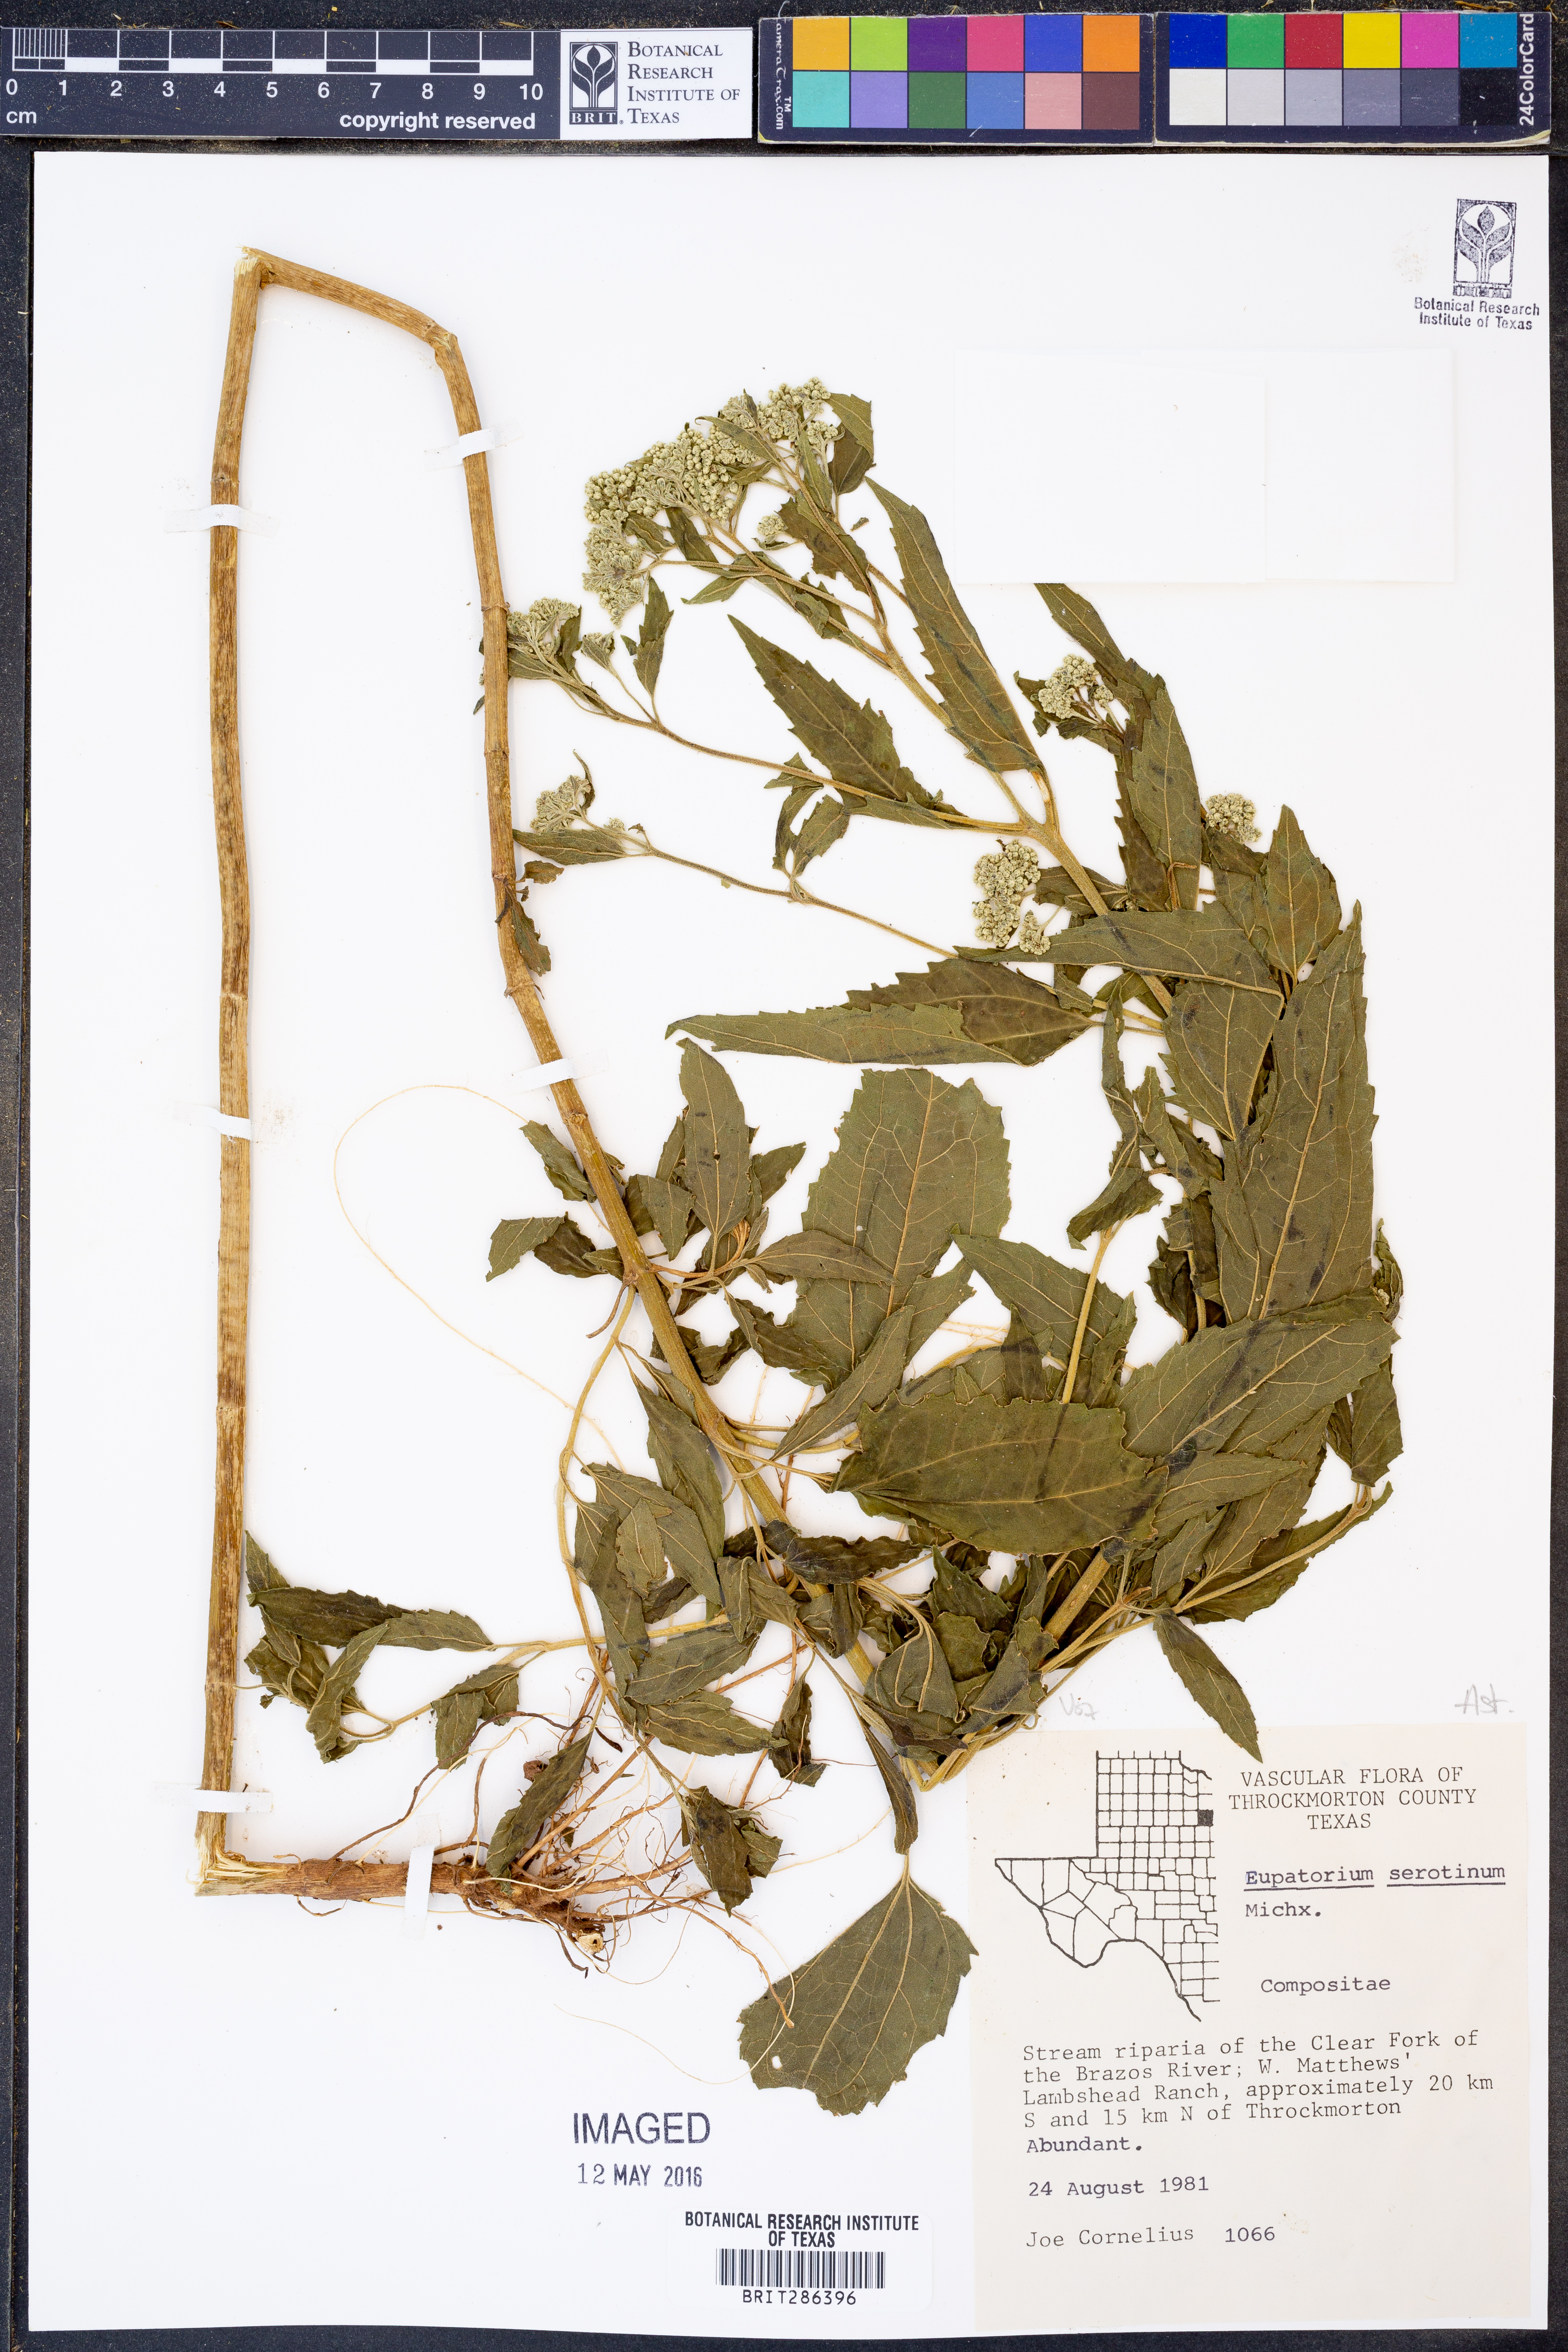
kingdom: Plantae
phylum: Tracheophyta
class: Magnoliopsida
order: Asterales
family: Asteraceae
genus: Eupatorium
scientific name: Eupatorium serotinum
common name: Late boneset
